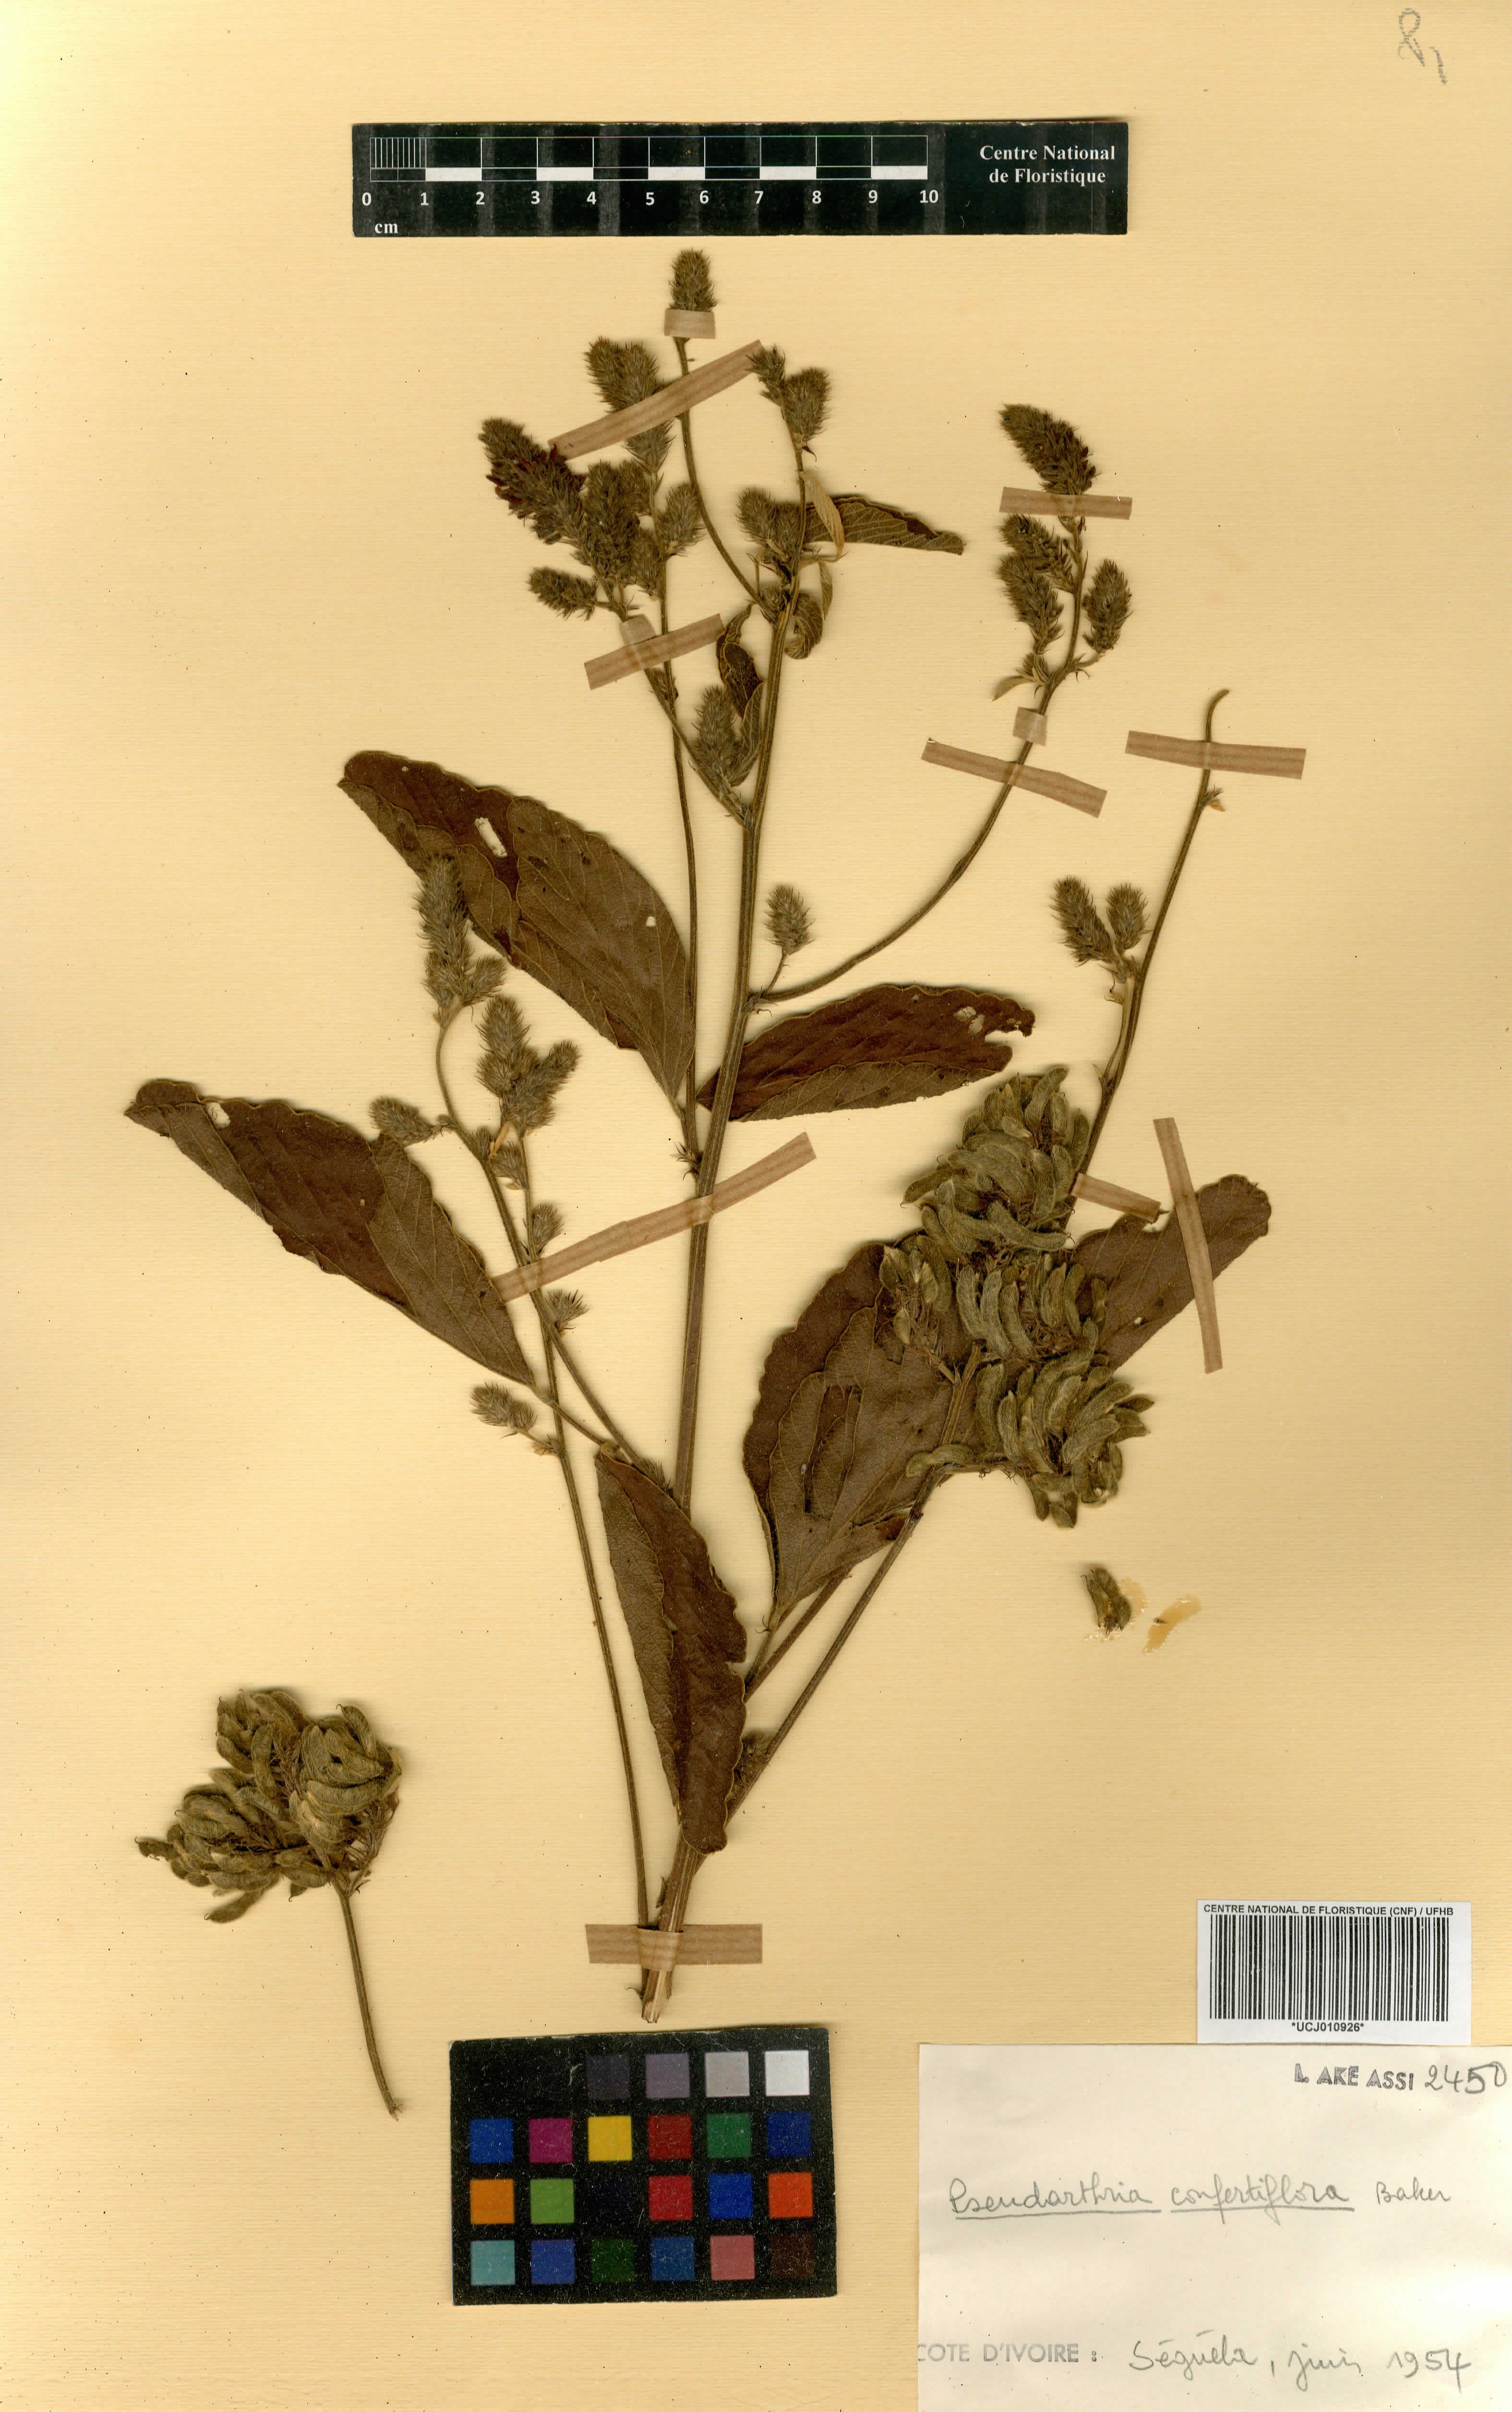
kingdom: Plantae
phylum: Tracheophyta
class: Magnoliopsida
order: Fabales
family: Fabaceae
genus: Pseudarthria
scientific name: Pseudarthria confertiflora
